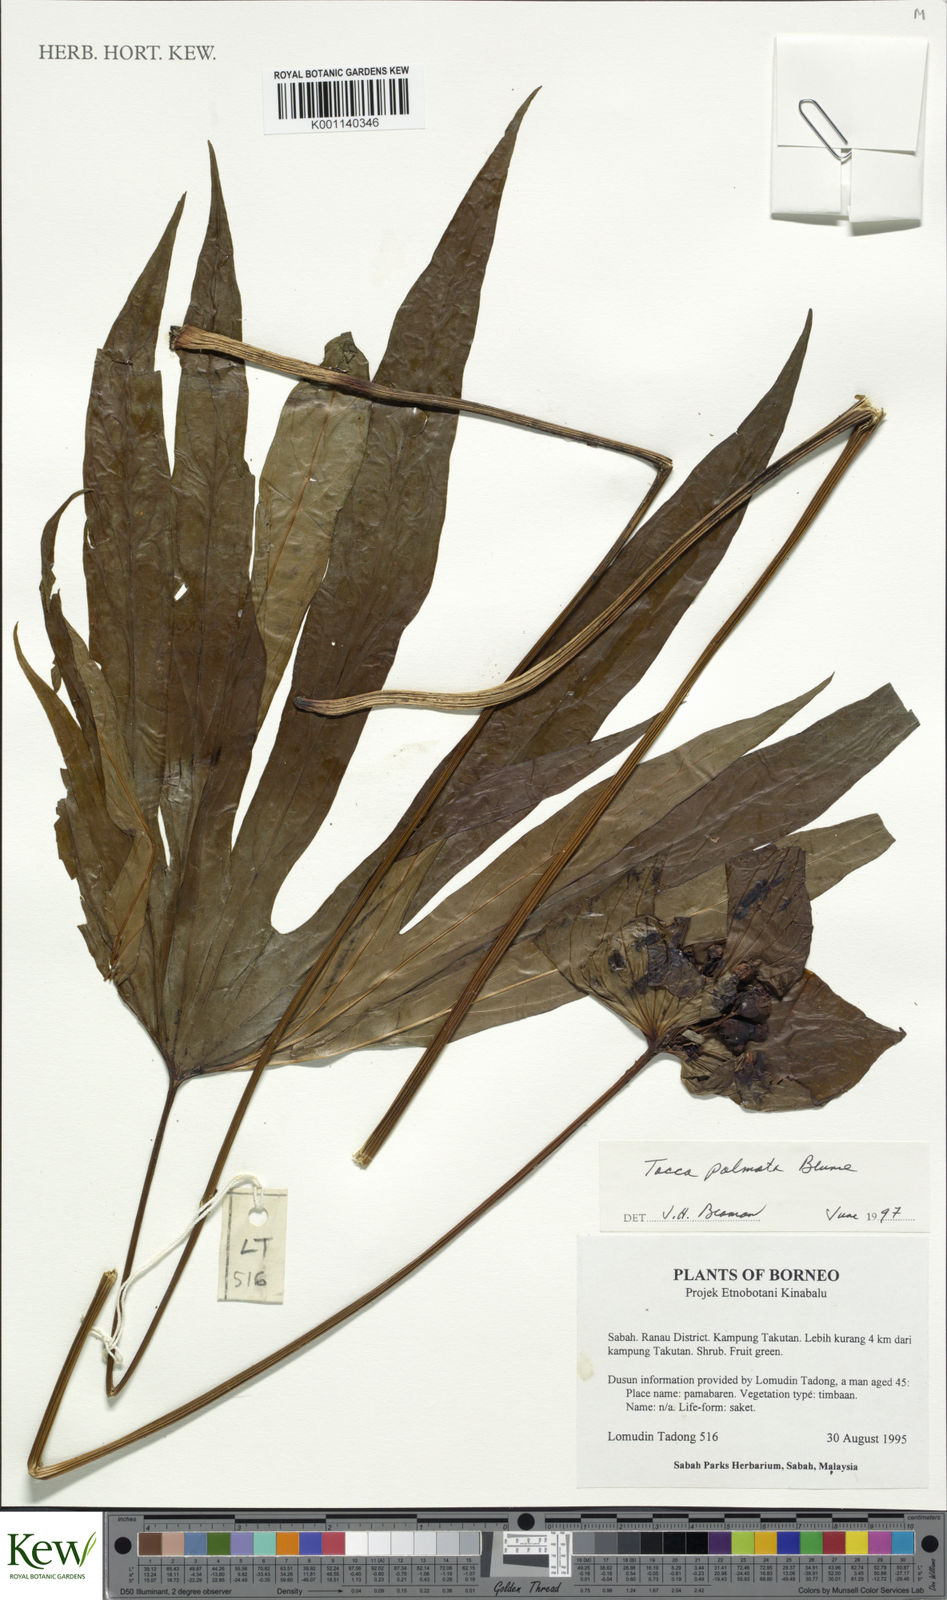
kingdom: Plantae
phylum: Tracheophyta
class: Liliopsida
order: Dioscoreales
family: Dioscoreaceae
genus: Tacca
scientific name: Tacca palmata
